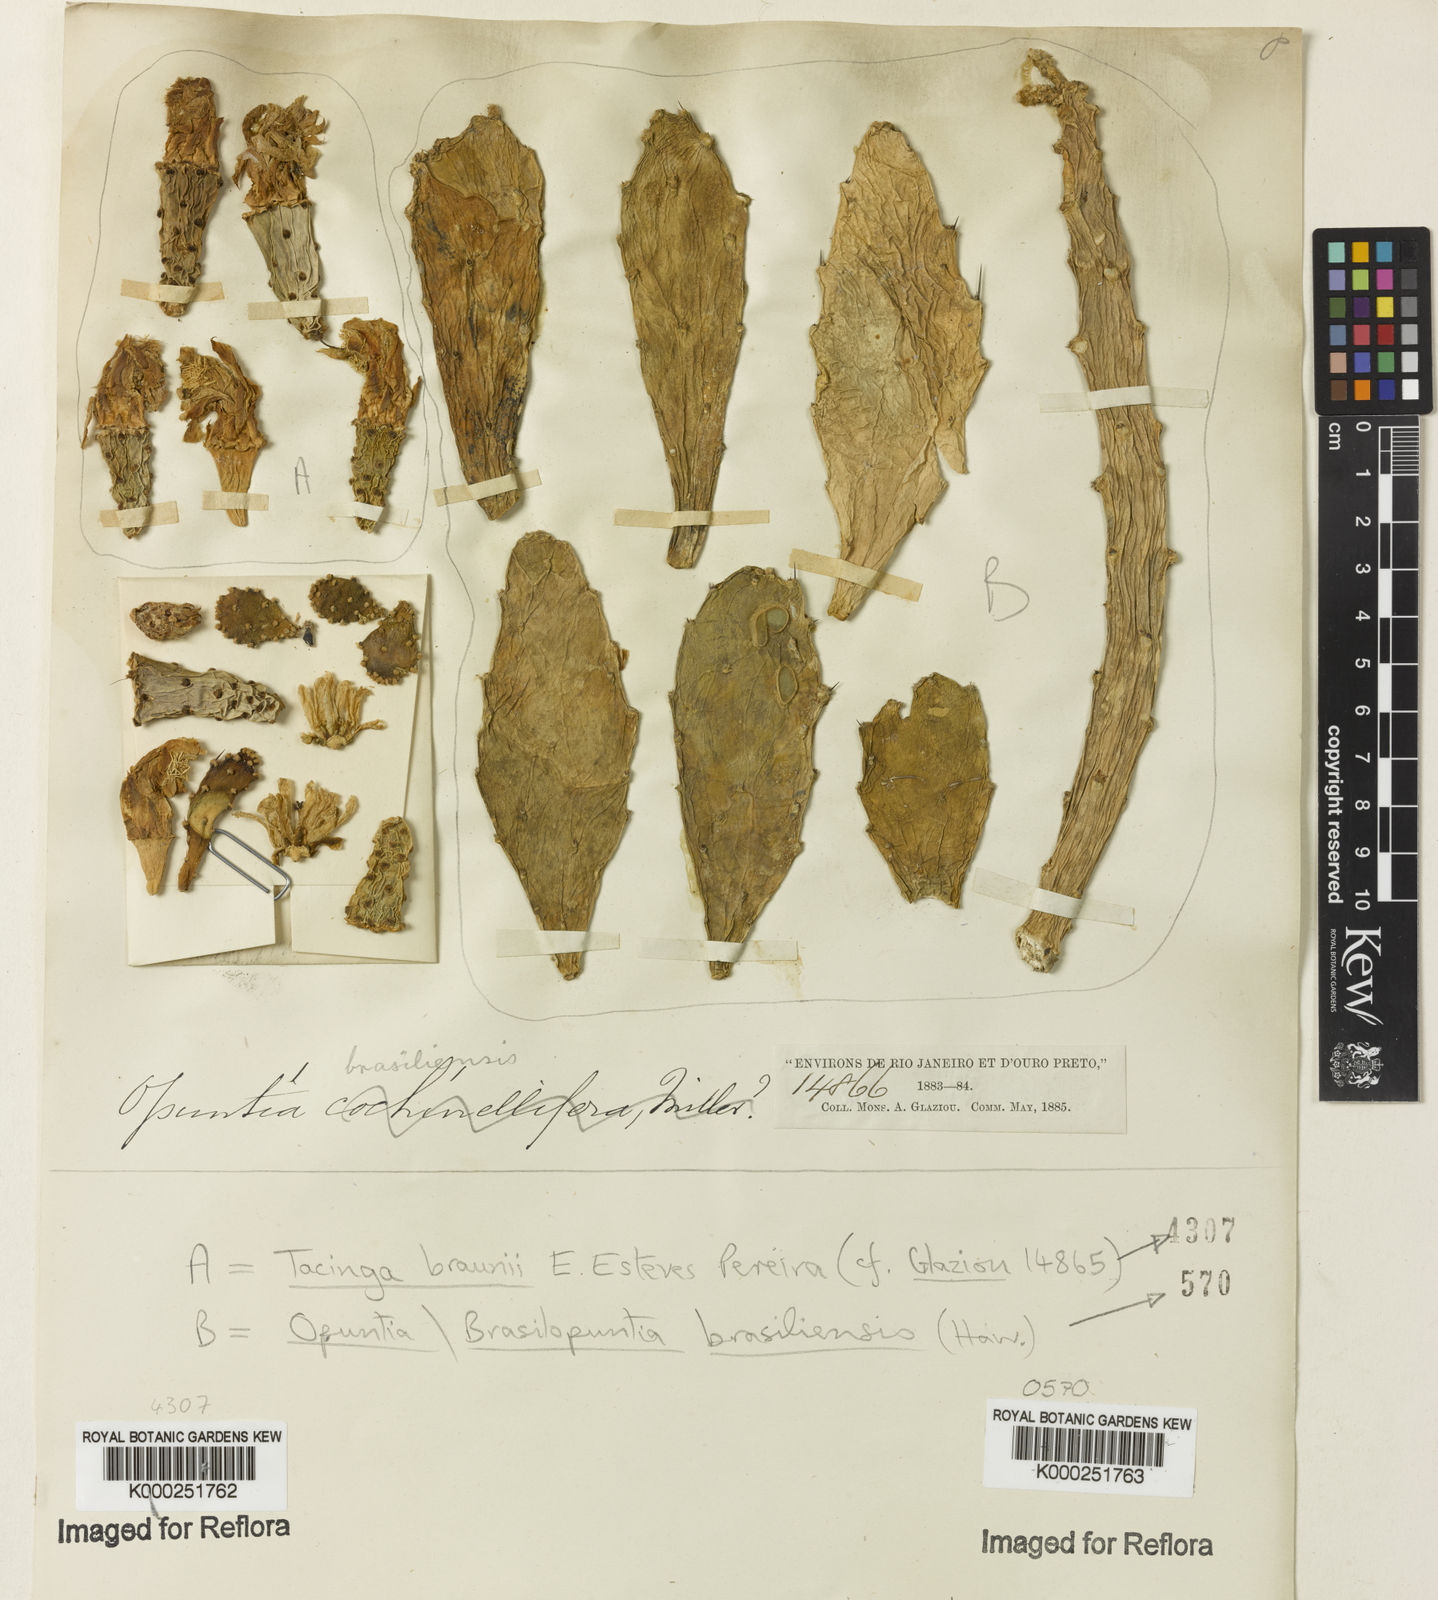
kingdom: Plantae
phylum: Tracheophyta
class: Magnoliopsida
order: Caryophyllales
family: Cactaceae
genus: Brasiliopuntia
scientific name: Brasiliopuntia brasiliensis
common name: Brazilian pricklypear
